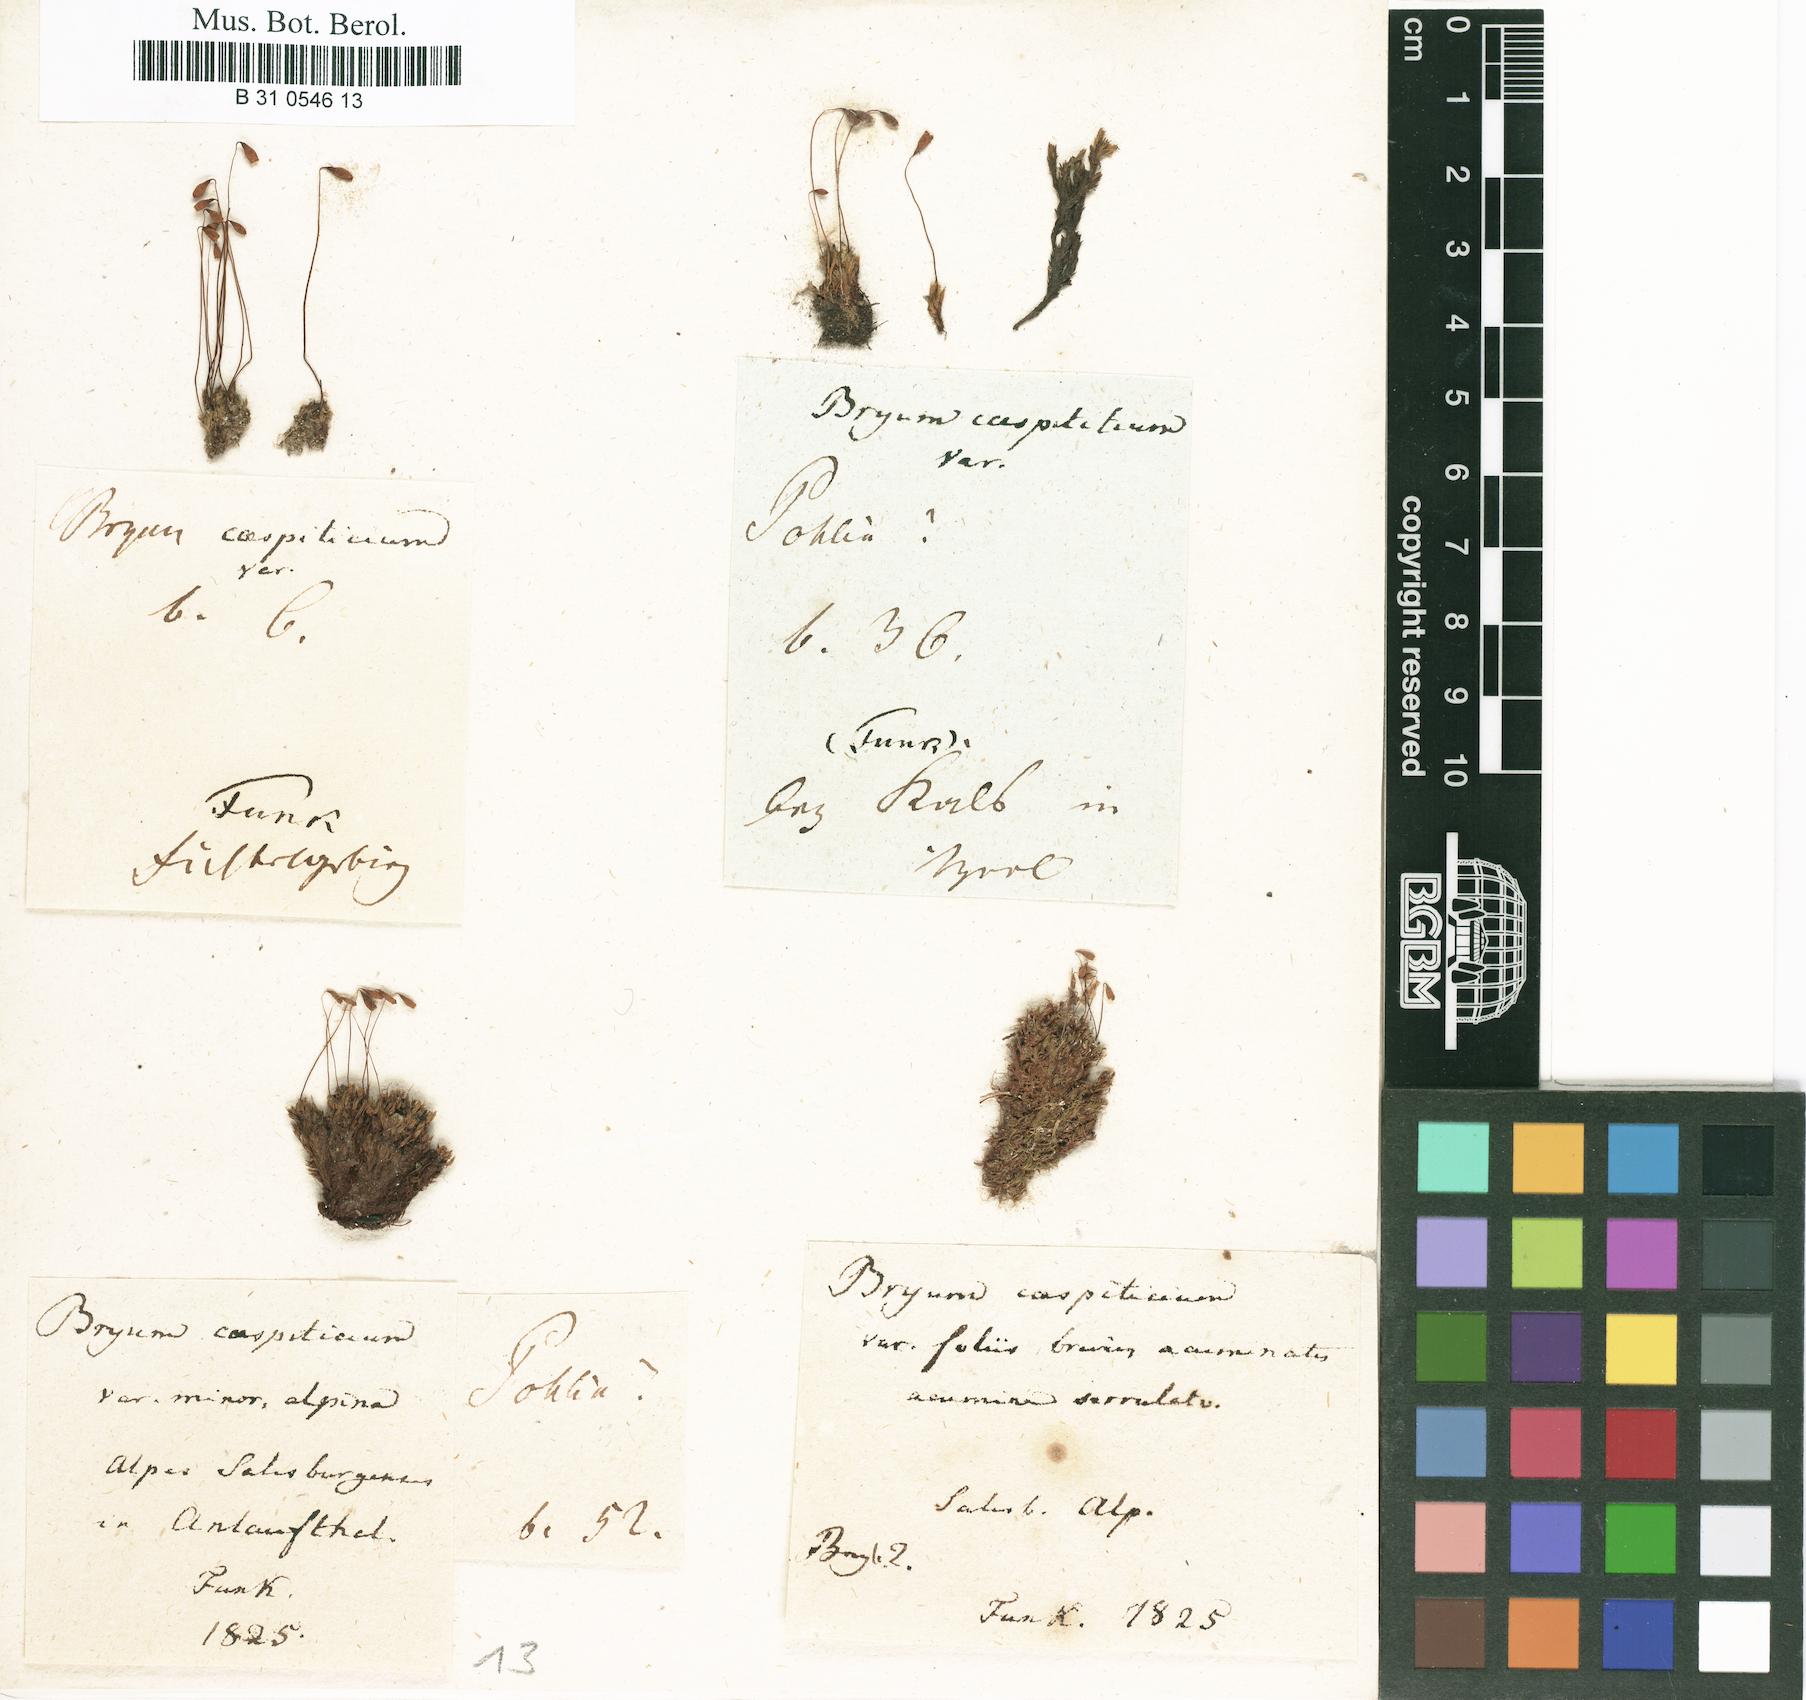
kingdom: Plantae
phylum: Bryophyta
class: Bryopsida
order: Bryales
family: Bryaceae
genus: Gemmabryum
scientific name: Gemmabryum caespiticium
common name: Handbell moss
